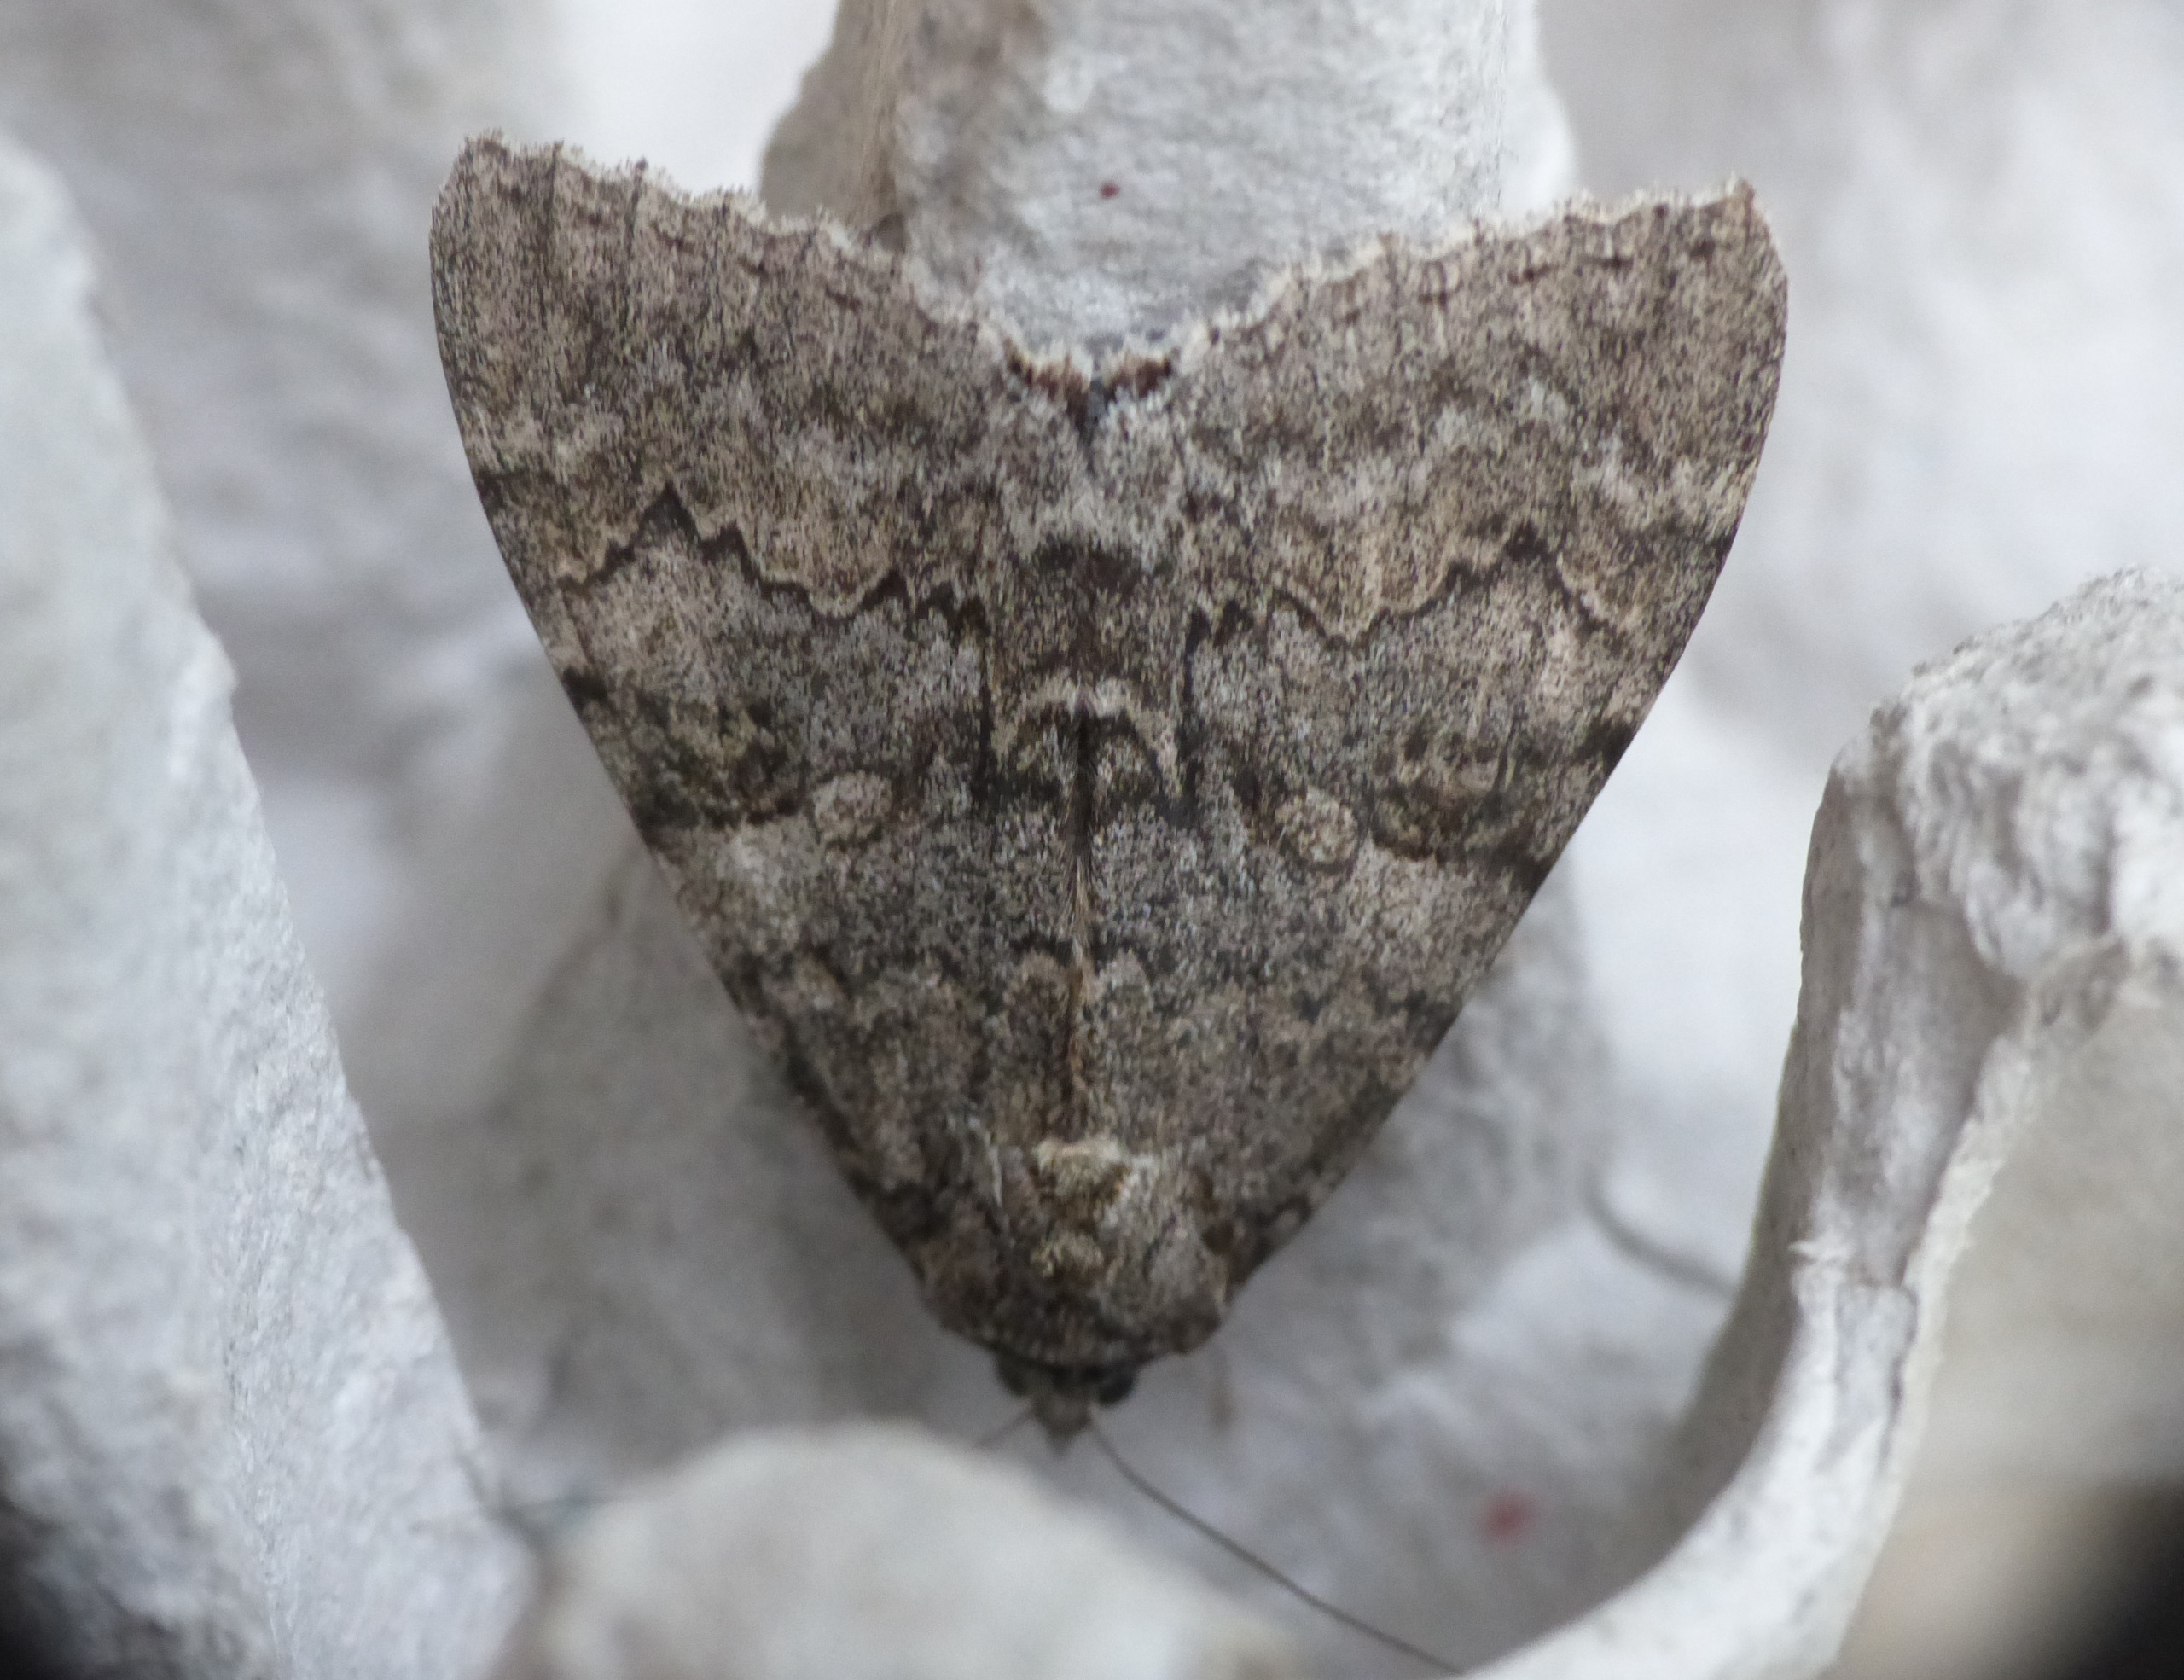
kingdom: Animalia
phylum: Arthropoda
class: Insecta
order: Lepidoptera
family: Erebidae
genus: Catocala
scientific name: Catocala nupta
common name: Rødt ordensbånd
